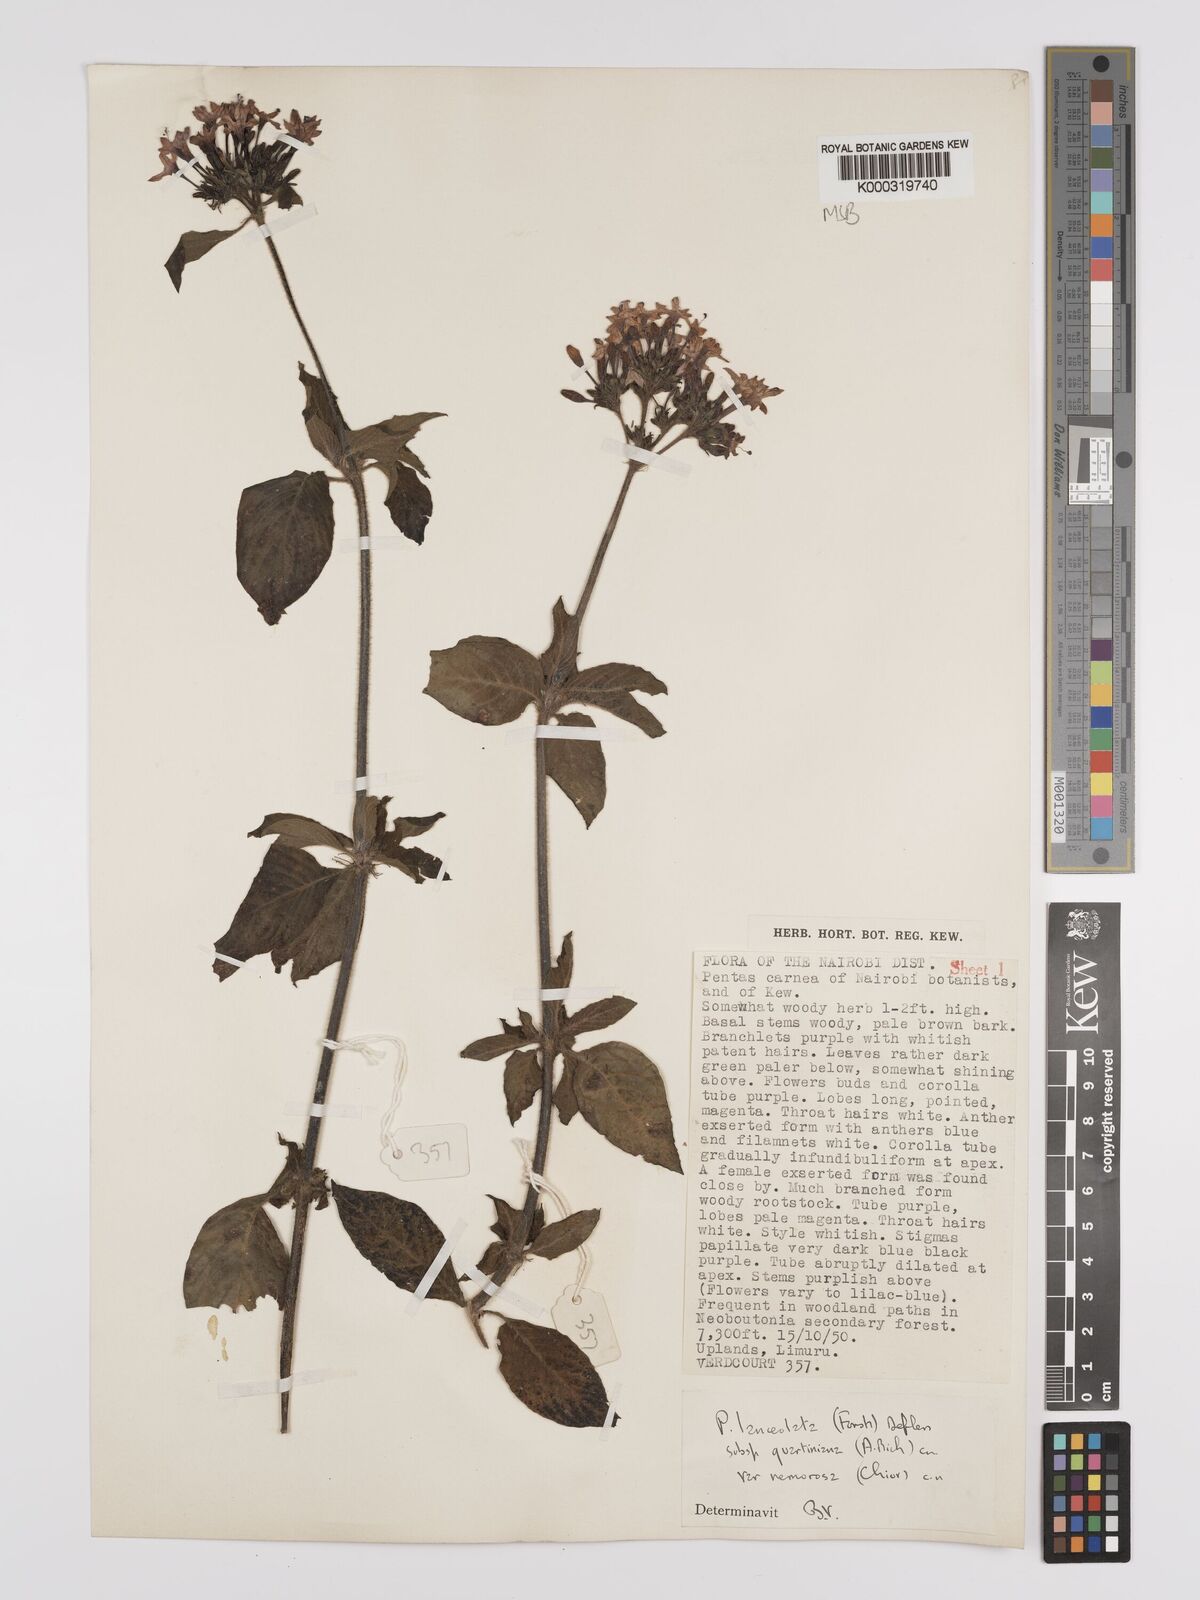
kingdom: Plantae
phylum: Tracheophyta
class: Magnoliopsida
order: Gentianales
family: Rubiaceae
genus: Pentas
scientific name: Pentas lanceolata
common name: Egyptian starcluster
